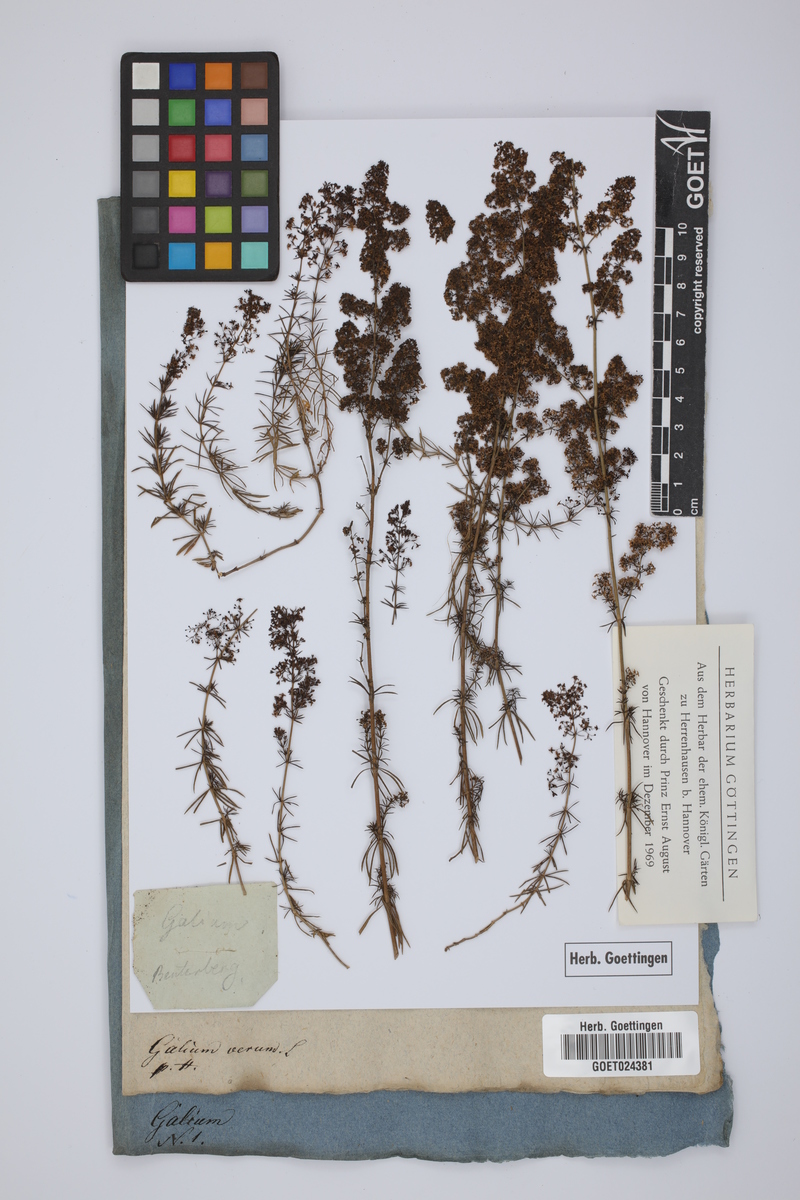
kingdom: Plantae
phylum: Tracheophyta
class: Magnoliopsida
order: Gentianales
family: Rubiaceae
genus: Galium
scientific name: Galium verum
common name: Lady's bedstraw
